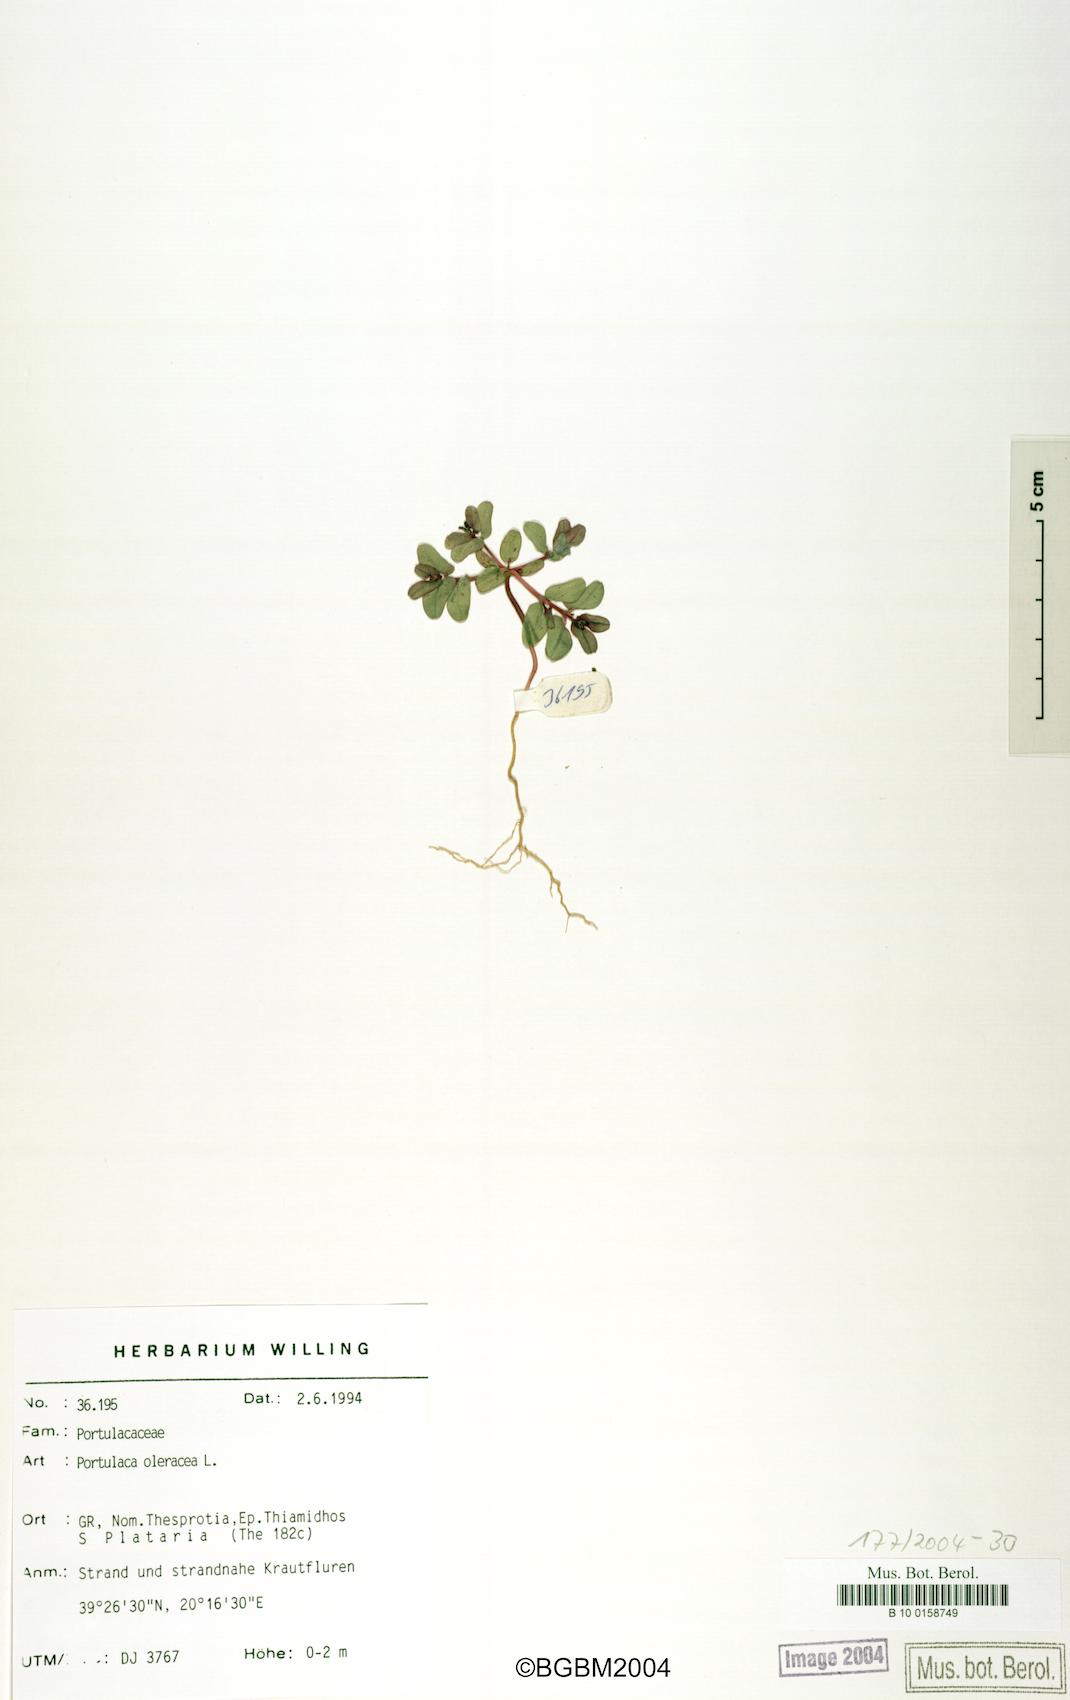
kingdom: Plantae
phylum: Tracheophyta
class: Magnoliopsida
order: Malpighiales
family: Euphorbiaceae
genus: Euphorbia
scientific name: Euphorbia peplis
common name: Purple spurge
